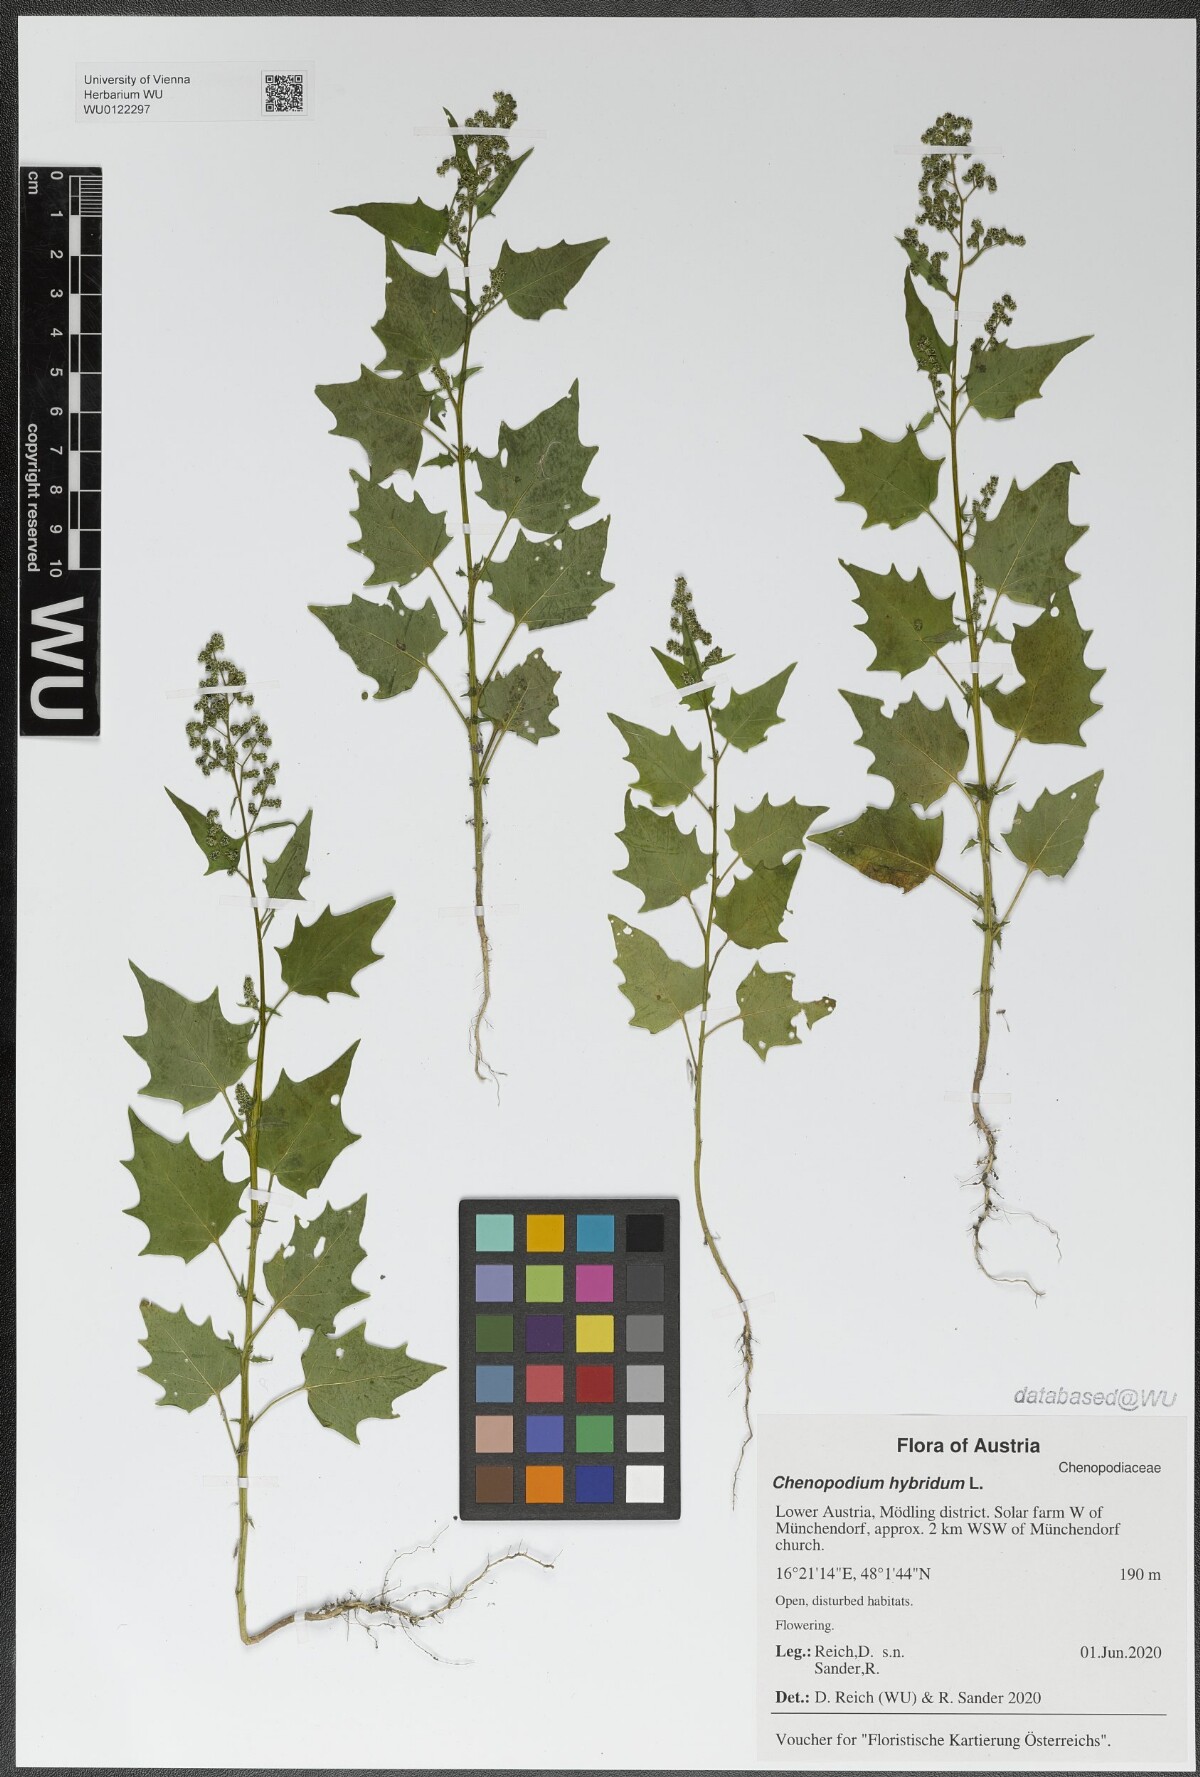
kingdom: Plantae
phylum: Tracheophyta
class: Magnoliopsida
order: Caryophyllales
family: Amaranthaceae
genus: Chenopodiastrum
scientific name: Chenopodiastrum hybridum
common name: Mapleleaf goosefoot
